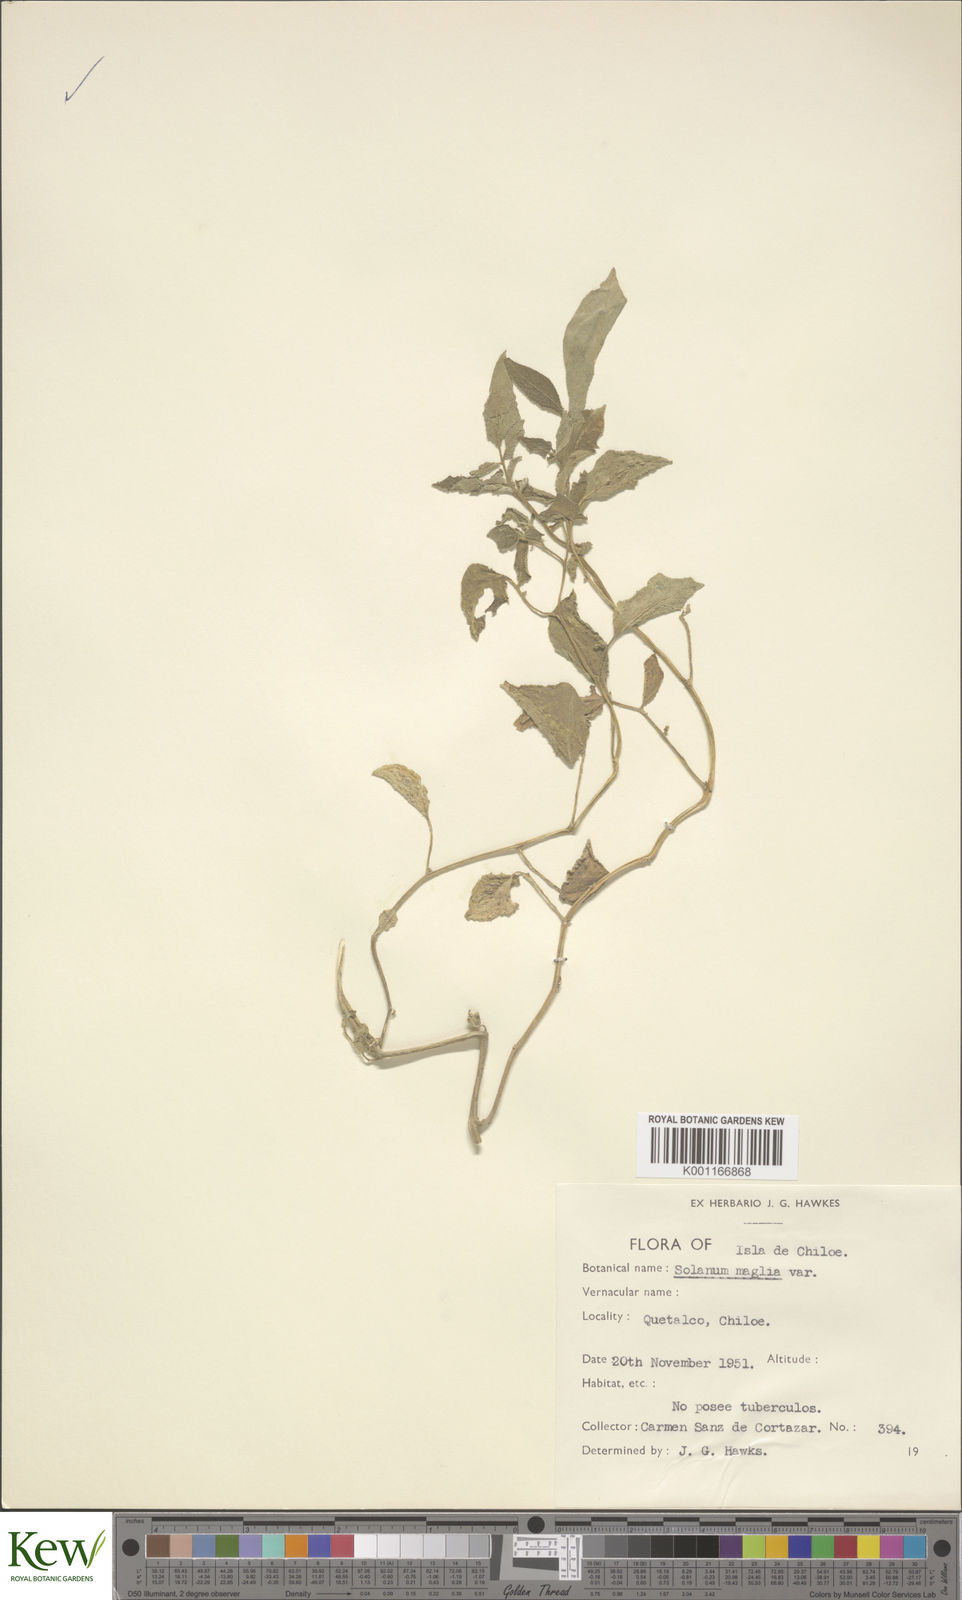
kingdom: Plantae
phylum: Tracheophyta
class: Magnoliopsida
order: Solanales
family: Solanaceae
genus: Solanum
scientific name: Solanum maglia
